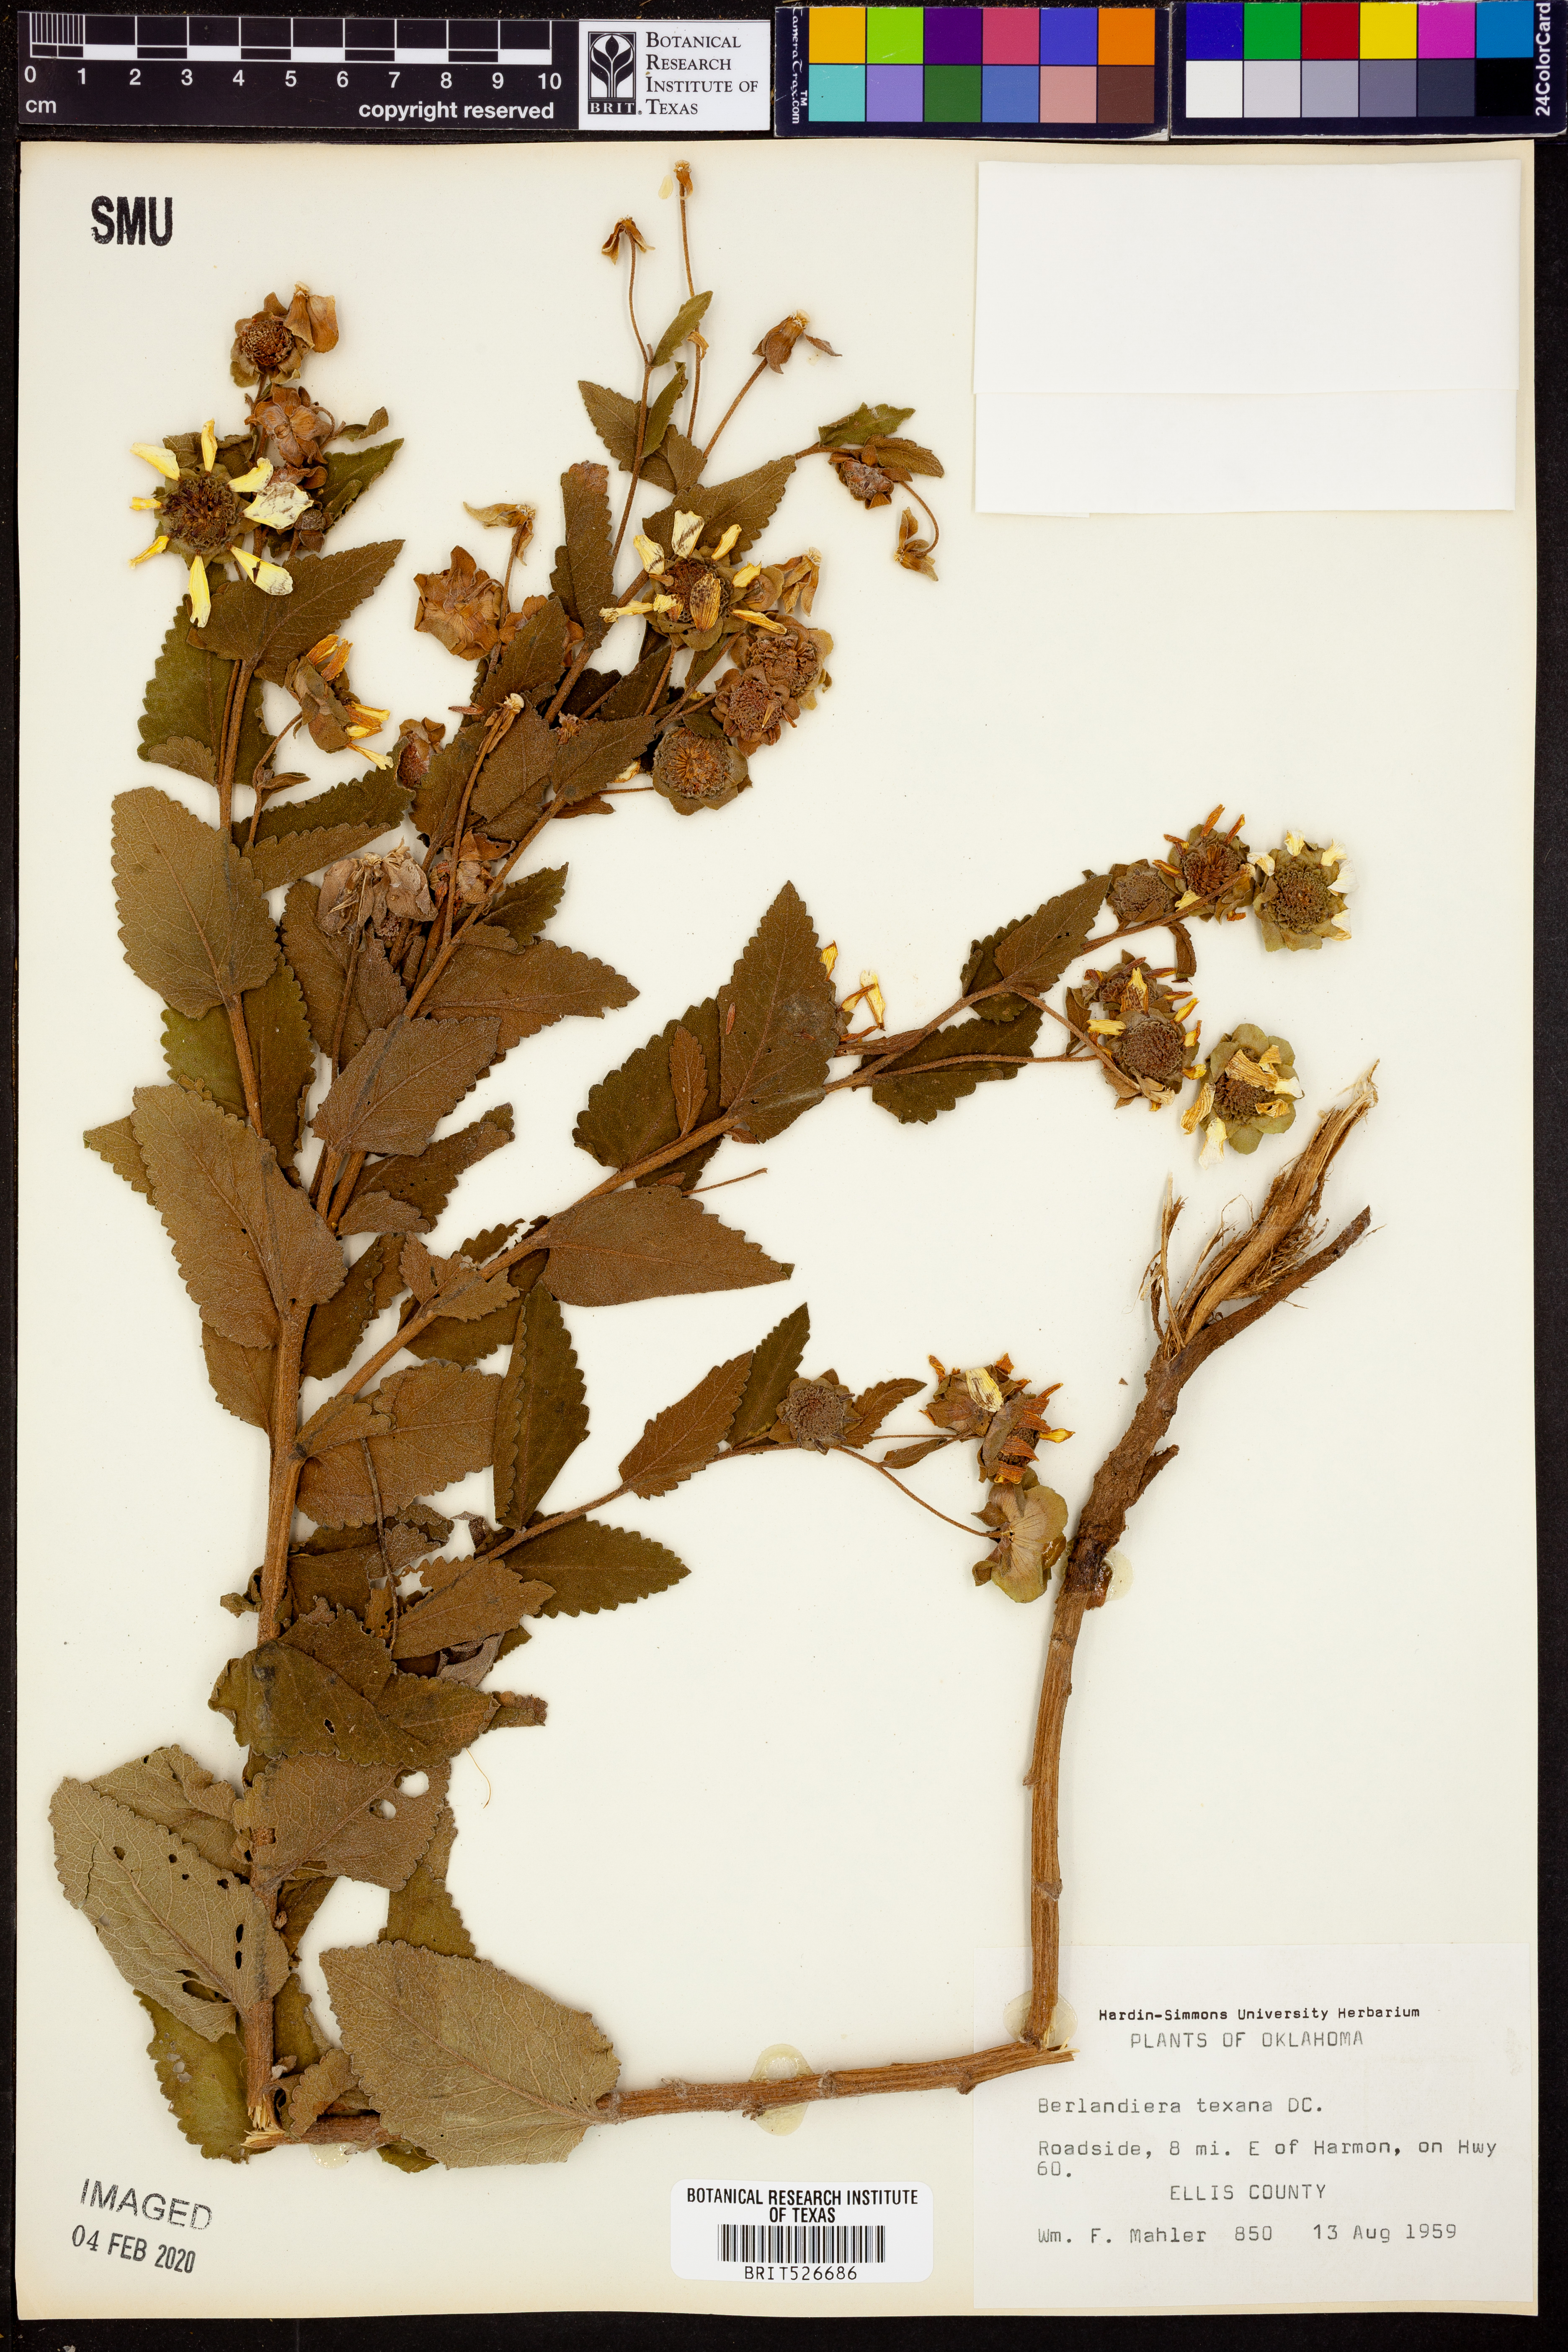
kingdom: Plantae
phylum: Tracheophyta
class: Magnoliopsida
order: Asterales
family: Asteraceae
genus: Berlandiera
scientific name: Berlandiera texana
